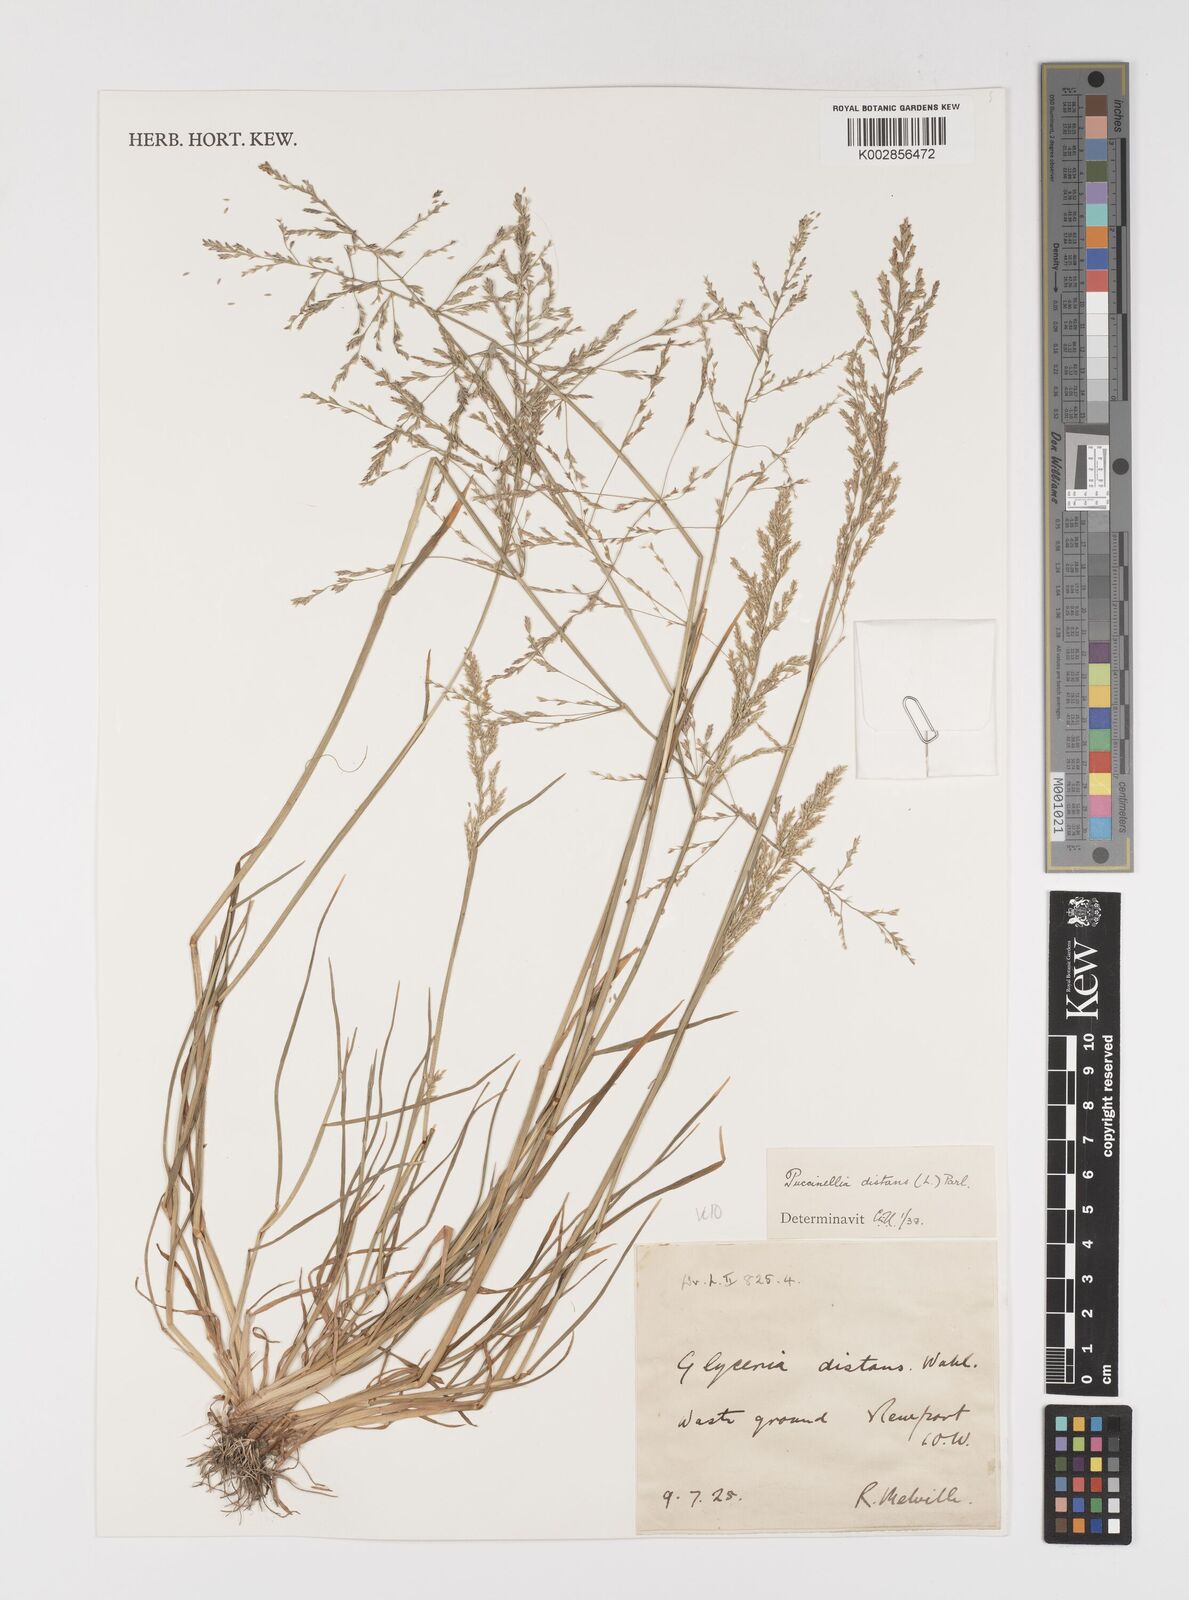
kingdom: Plantae
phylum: Tracheophyta
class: Liliopsida
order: Poales
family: Poaceae
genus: Puccinellia
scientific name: Puccinellia distans
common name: Weeping alkaligrass
